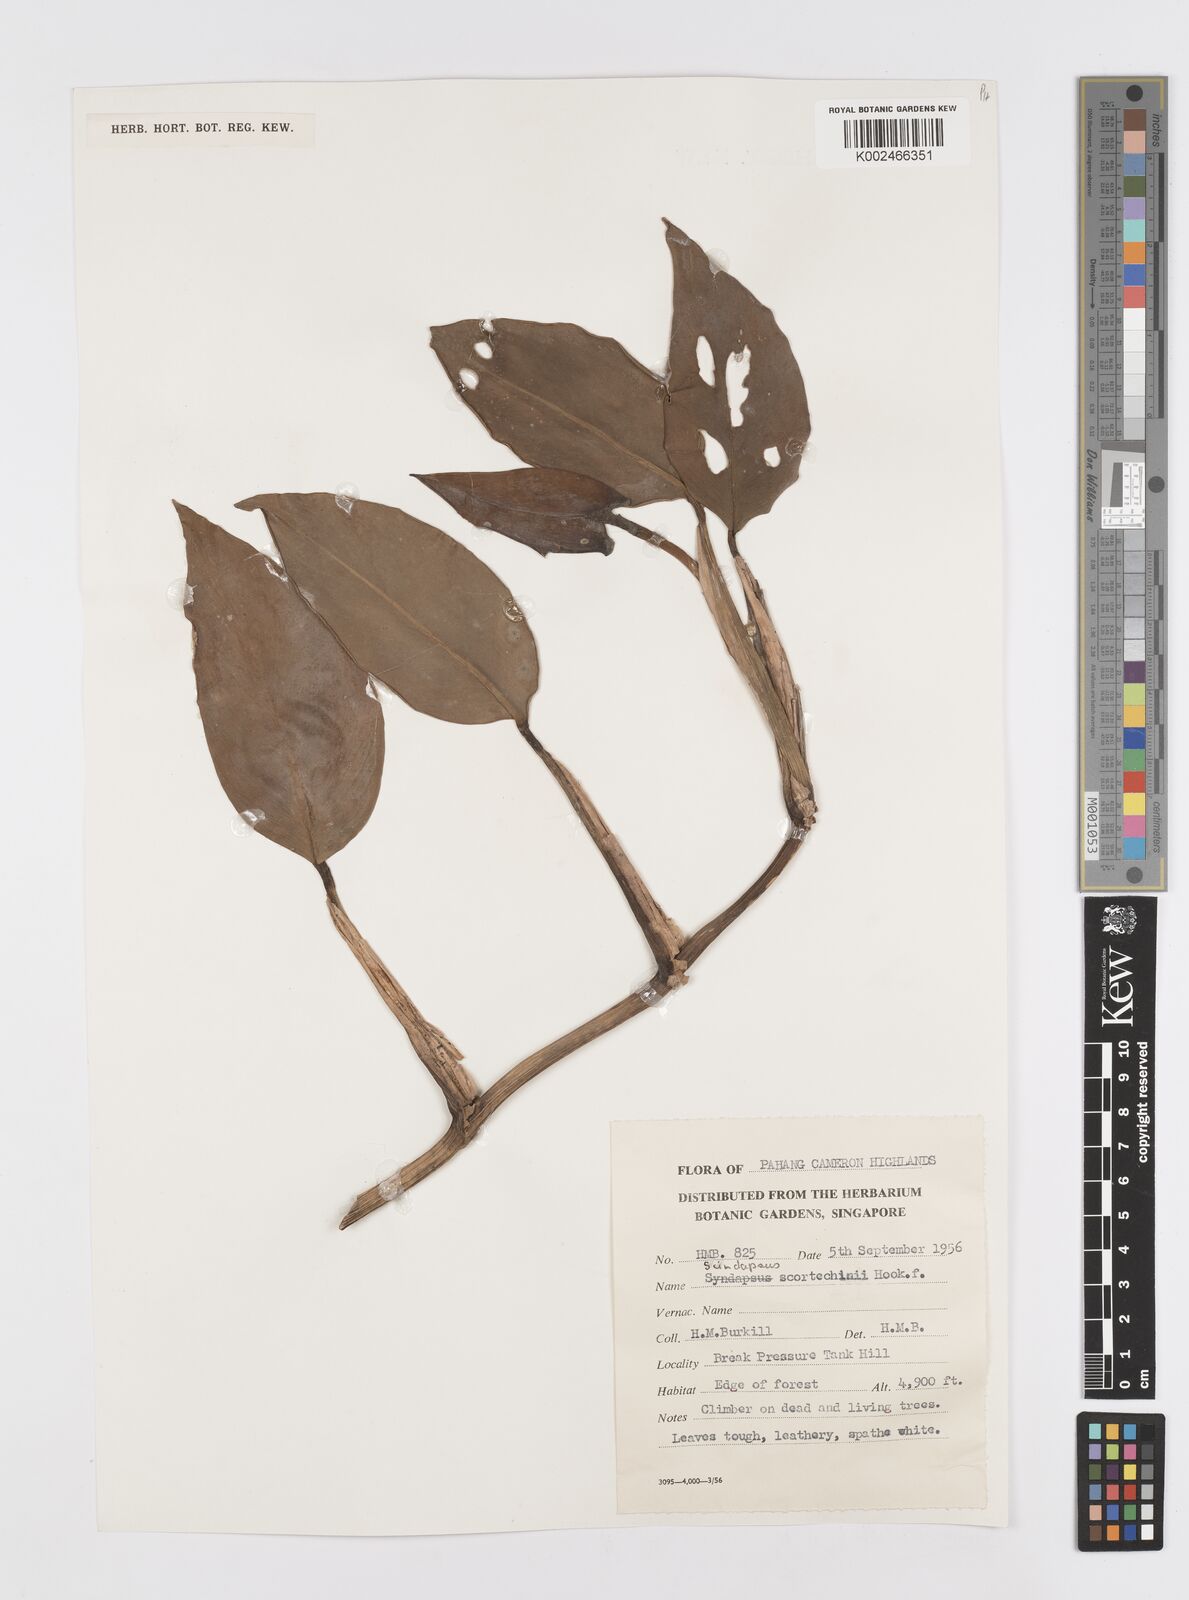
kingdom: Plantae
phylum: Tracheophyta
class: Liliopsida
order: Alismatales
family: Araceae
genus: Scindapsus
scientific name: Scindapsus scortechinii
